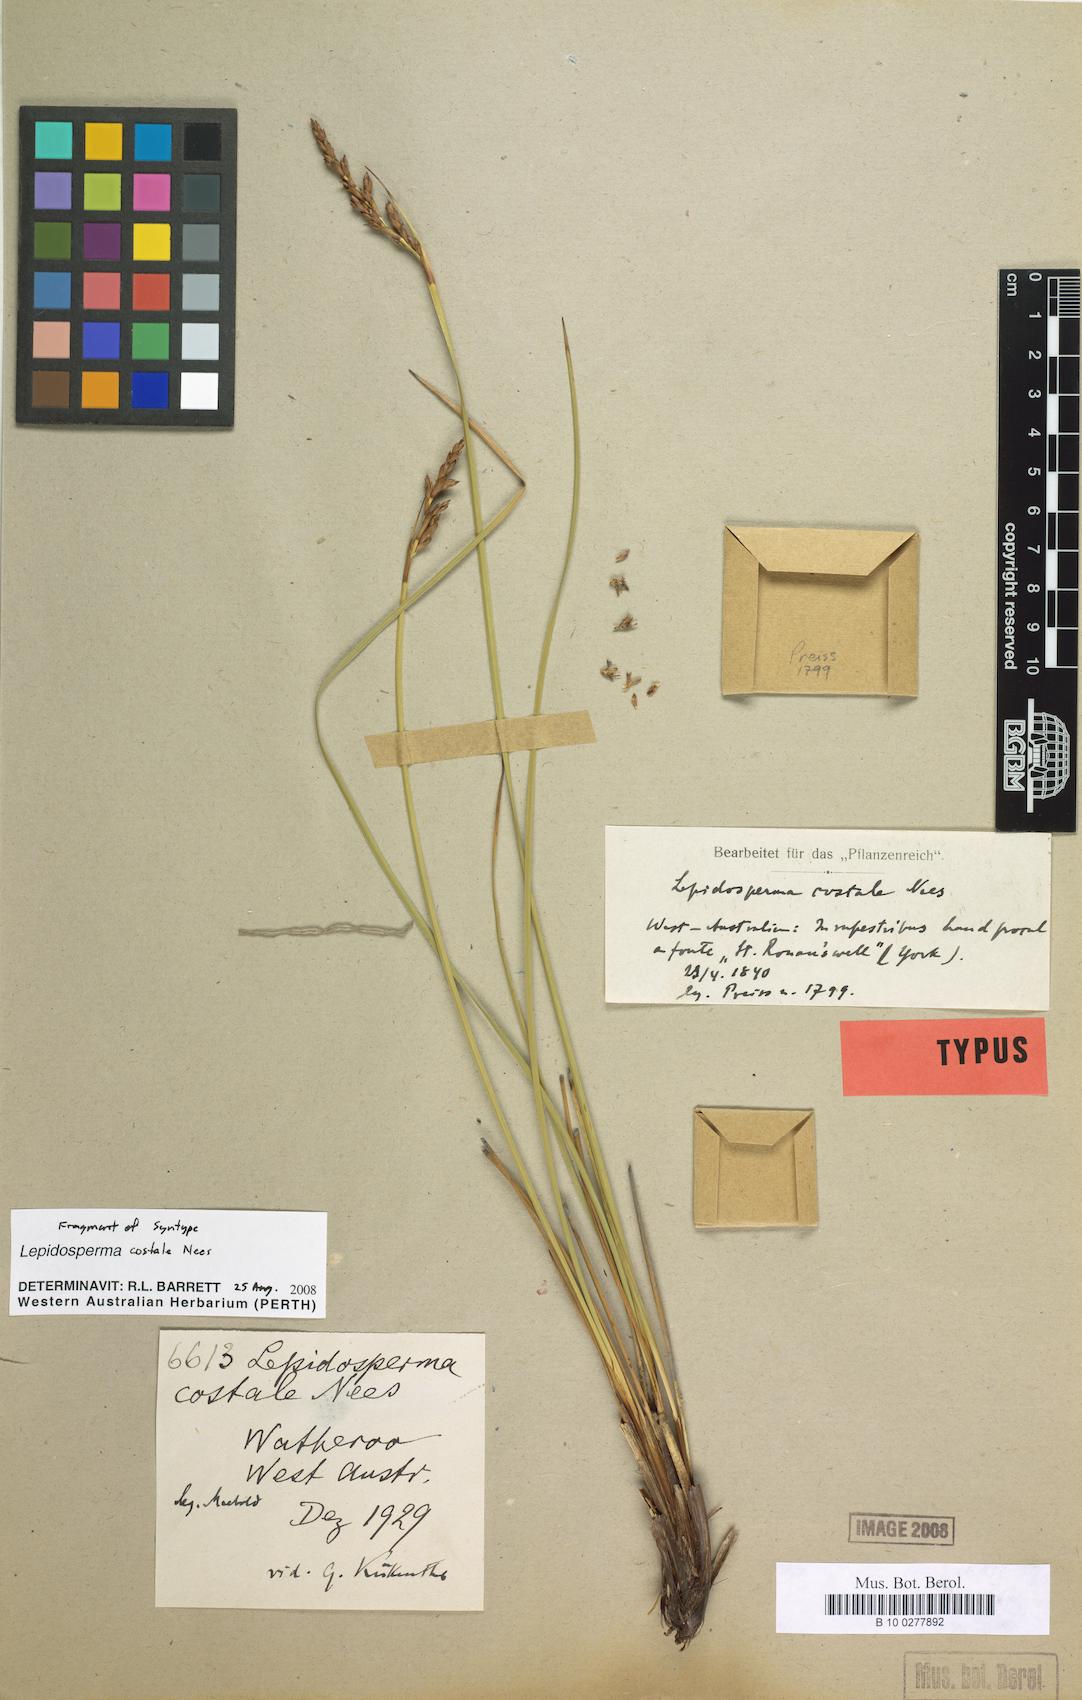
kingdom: Plantae
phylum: Tracheophyta
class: Liliopsida
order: Poales
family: Cyperaceae
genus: Lepidosperma
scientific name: Lepidosperma costale
